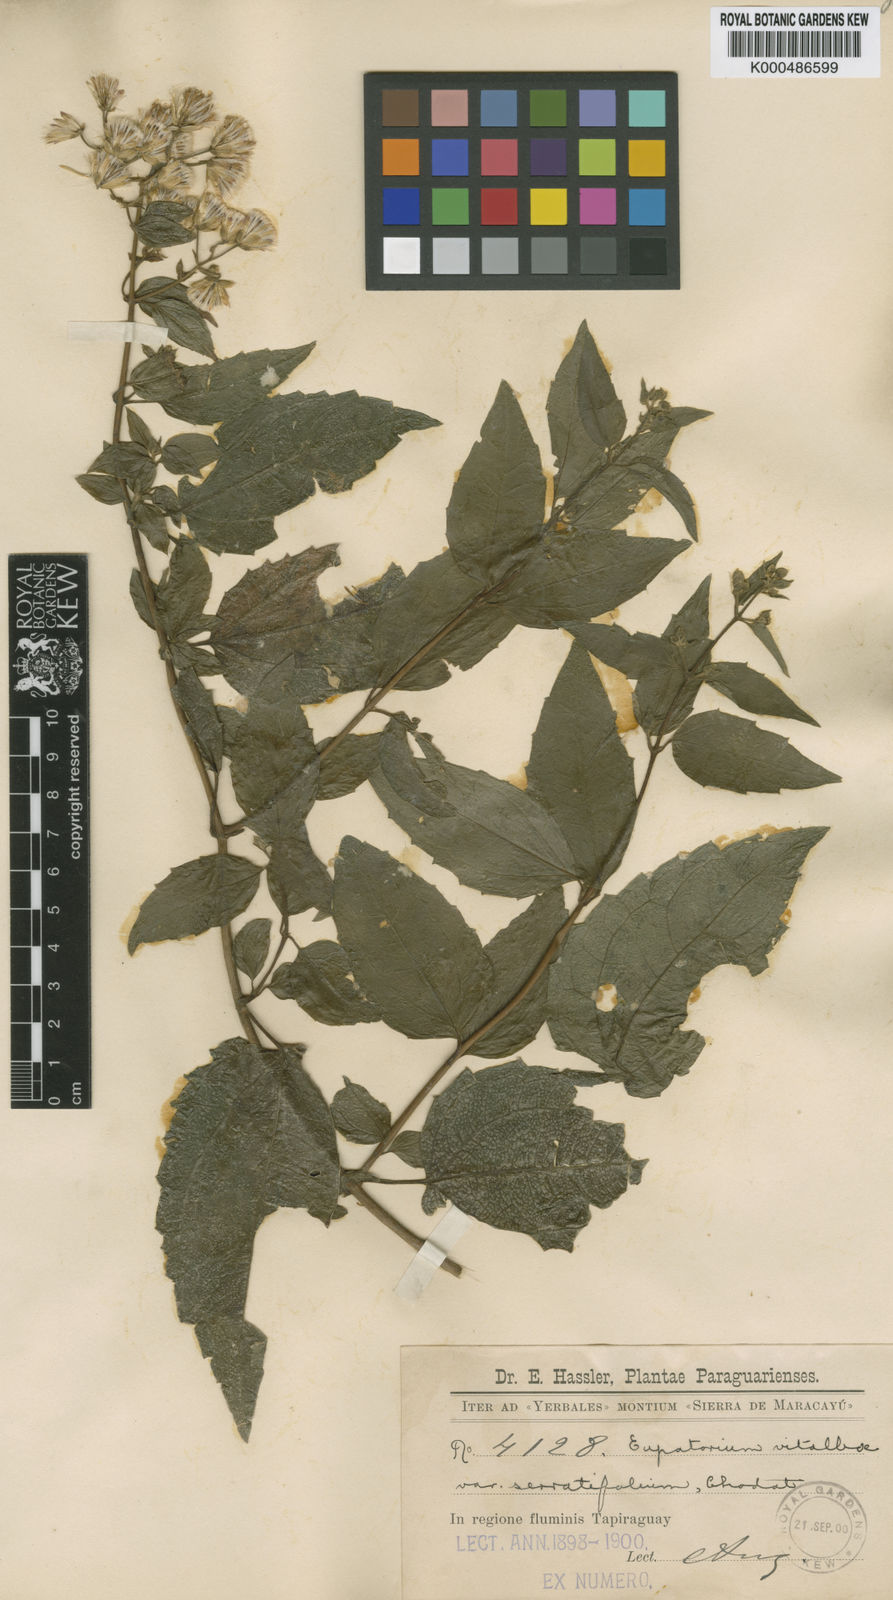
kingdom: Plantae
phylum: Tracheophyta
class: Magnoliopsida
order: Asterales
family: Asteraceae
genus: Heterocondylus
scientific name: Heterocondylus vitalbae
